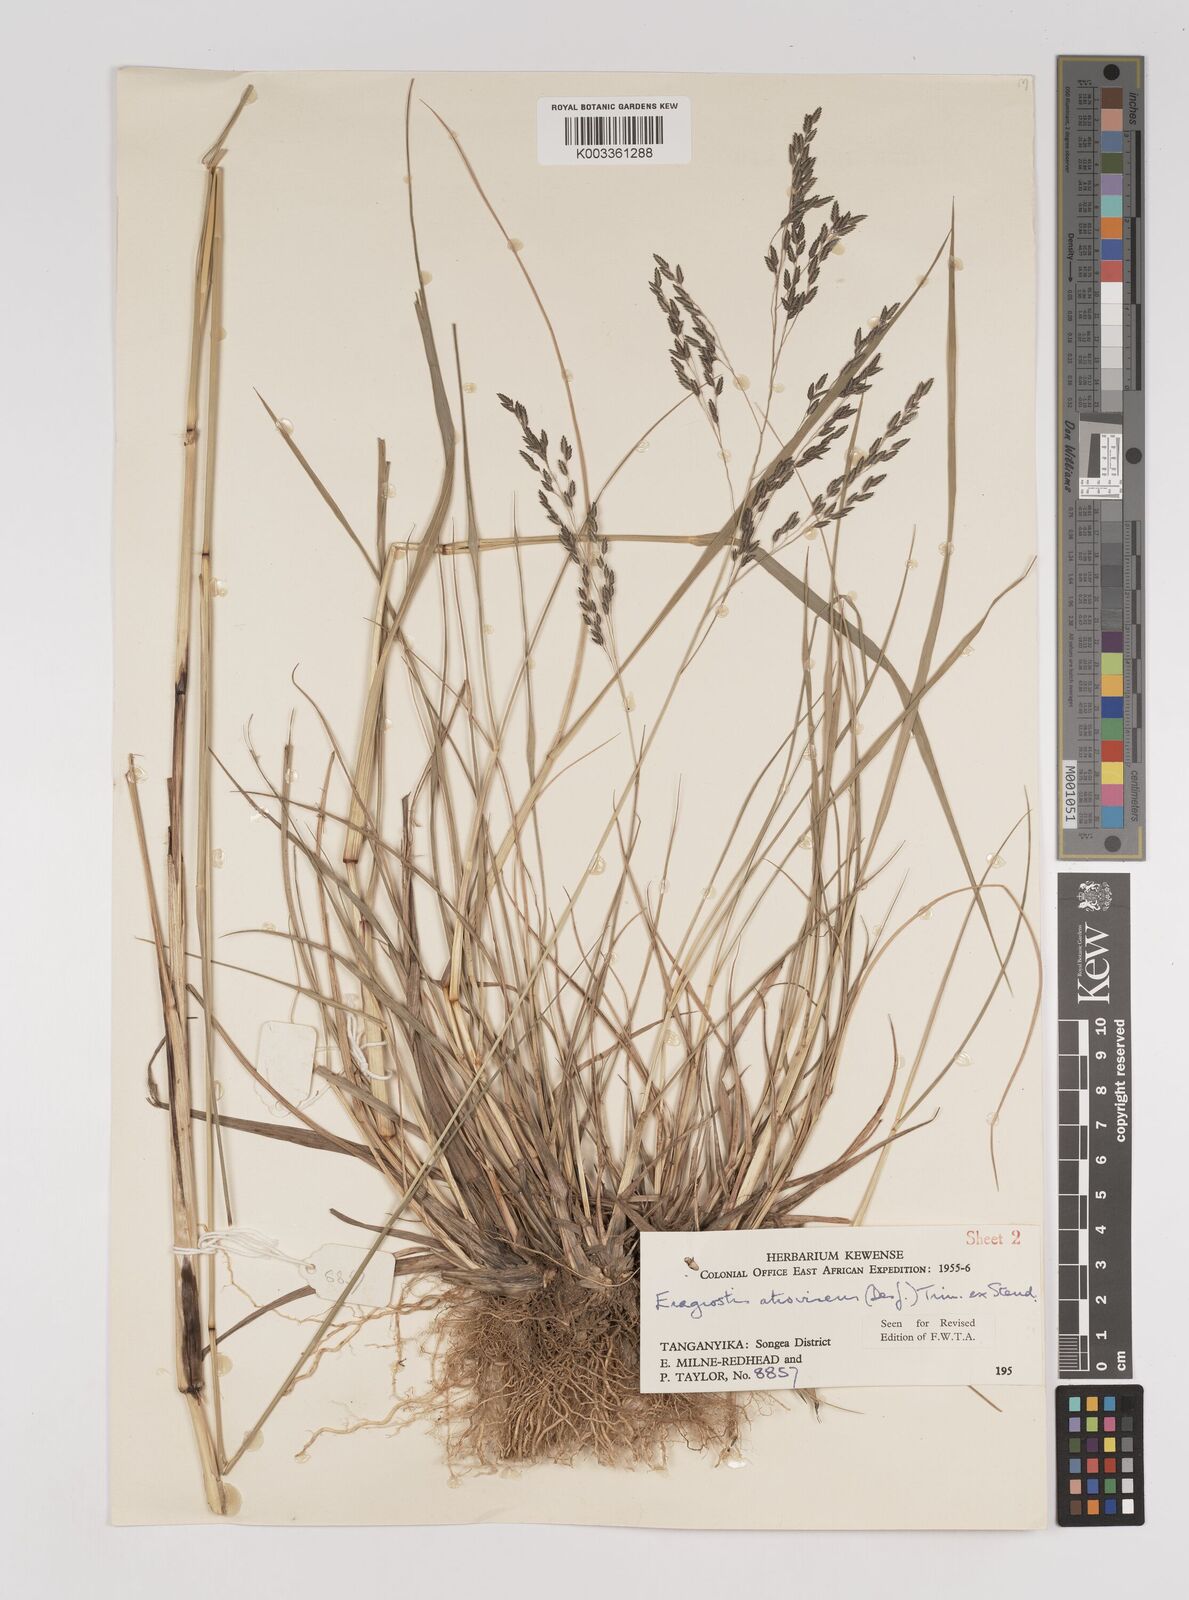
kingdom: Plantae
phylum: Tracheophyta
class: Liliopsida
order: Poales
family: Poaceae
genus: Eragrostis
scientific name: Eragrostis papposa
